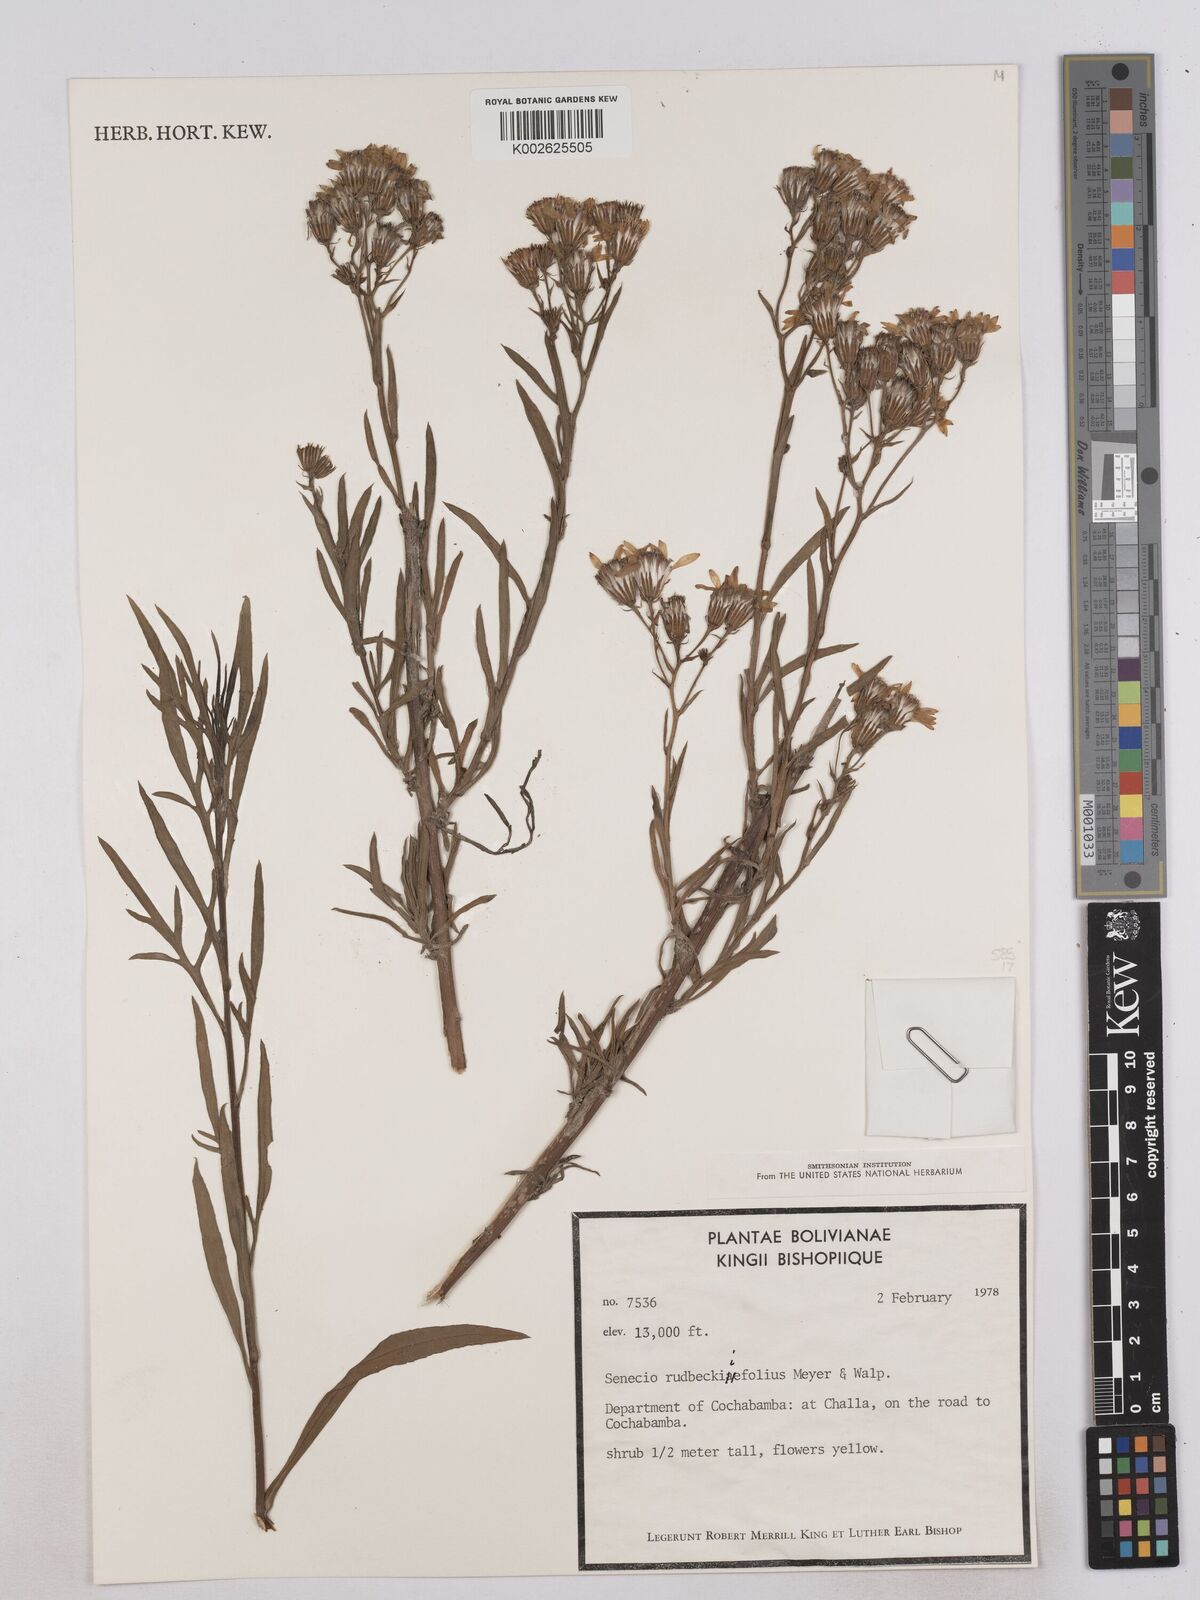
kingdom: Plantae
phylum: Tracheophyta
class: Magnoliopsida
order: Asterales
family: Asteraceae
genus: Senecio
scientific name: Senecio rudbeckiifolius
